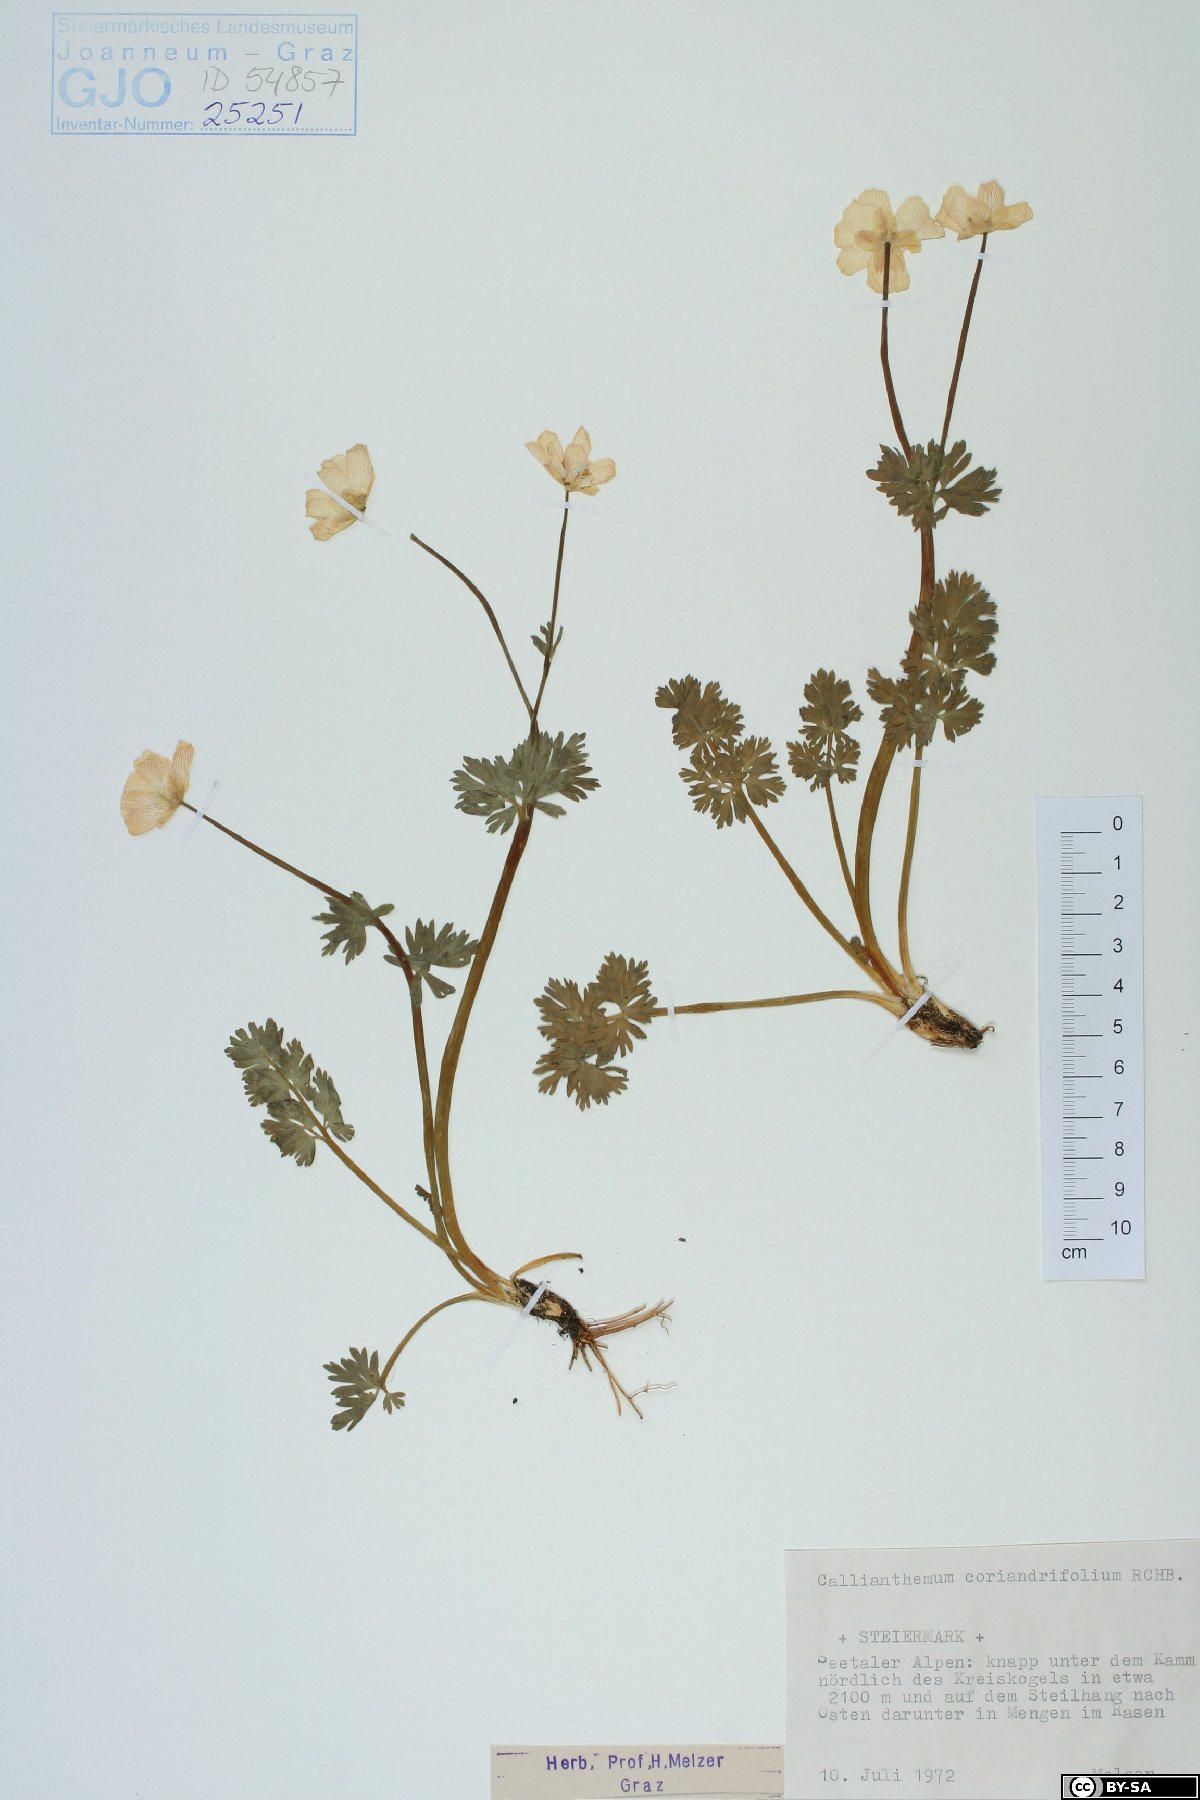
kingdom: Plantae
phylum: Tracheophyta
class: Magnoliopsida
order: Ranunculales
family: Ranunculaceae
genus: Callianthemum
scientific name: Callianthemum coriandrifolium
